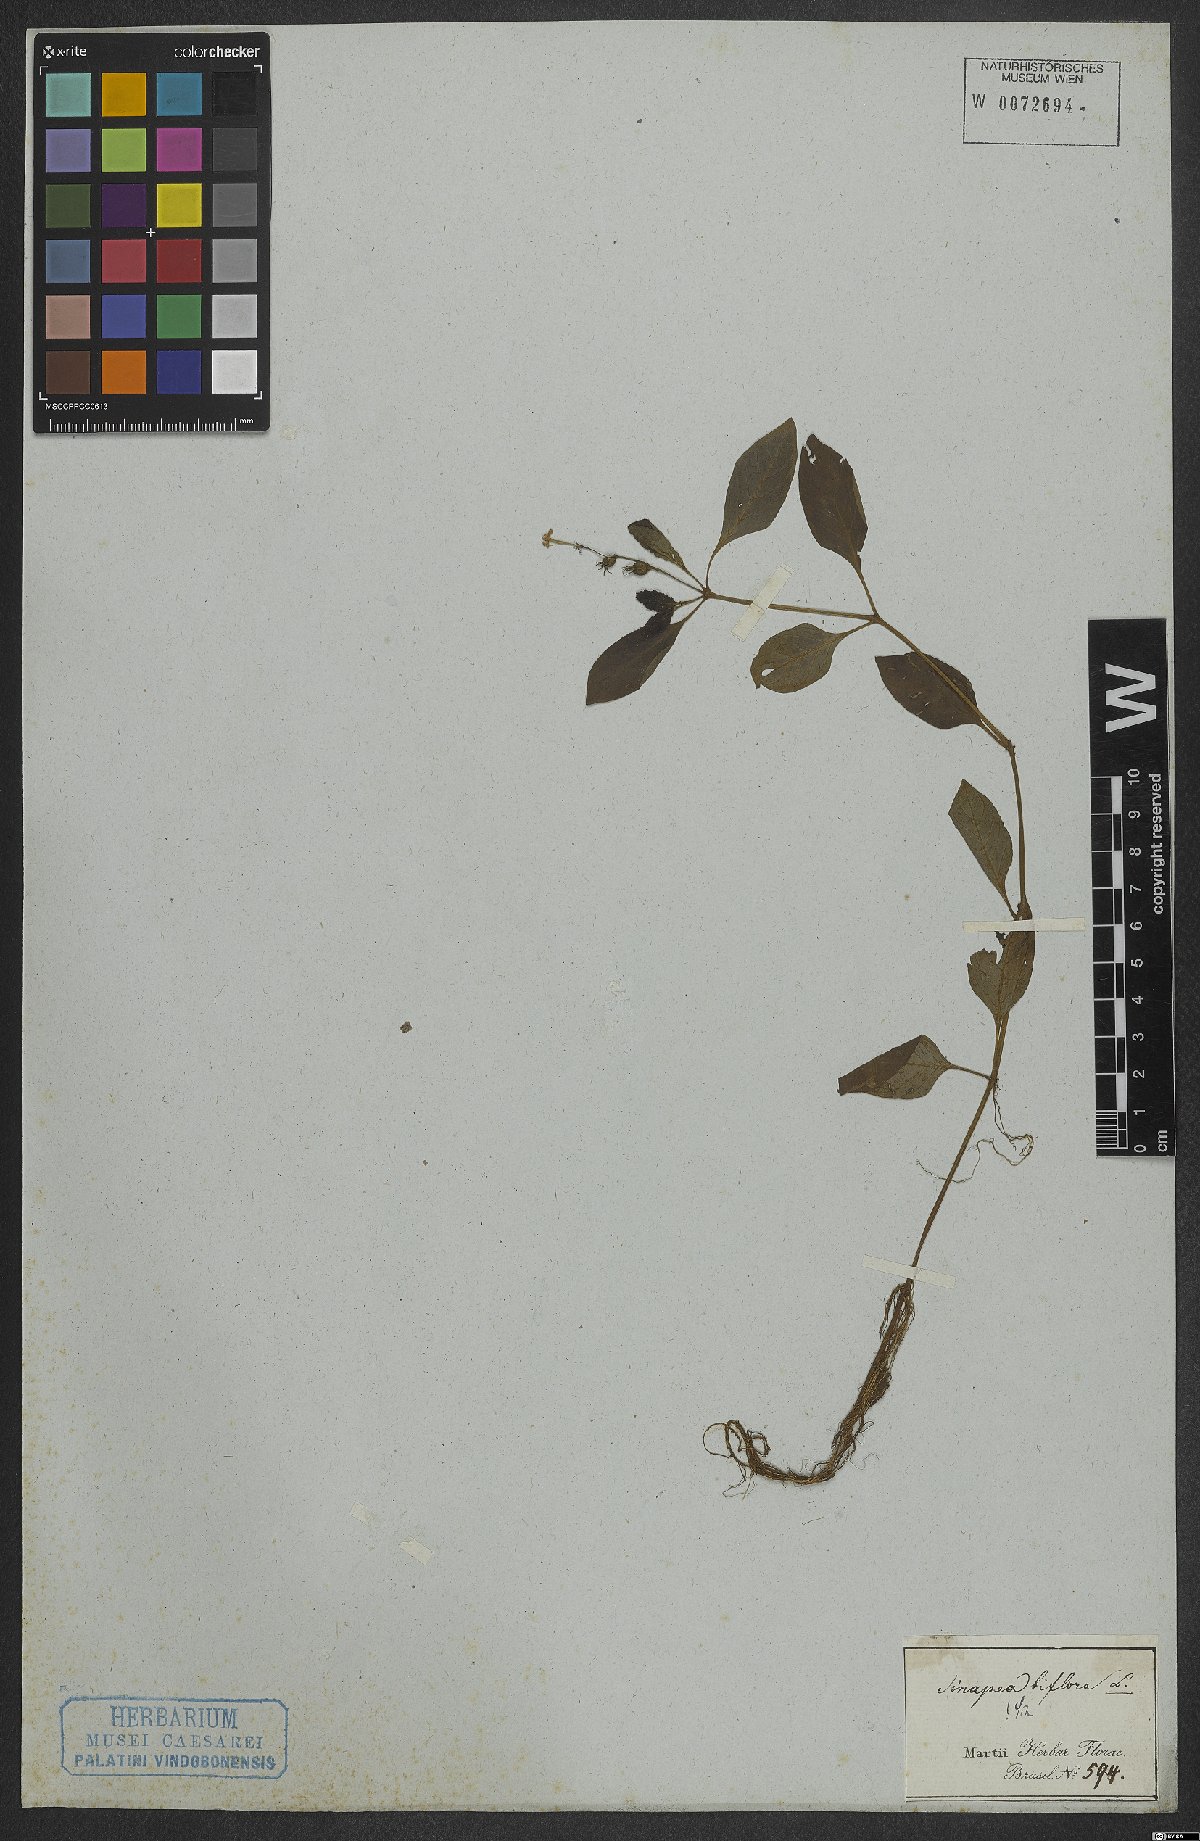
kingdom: Plantae
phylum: Tracheophyta
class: Magnoliopsida
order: Gentianales
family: Rubiaceae
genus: Sipanea
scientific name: Sipanea biflora
